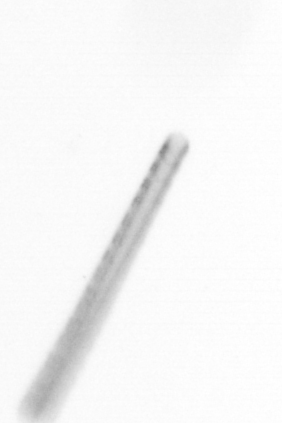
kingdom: Chromista
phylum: Ochrophyta
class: Bacillariophyceae
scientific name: Bacillariophyceae
